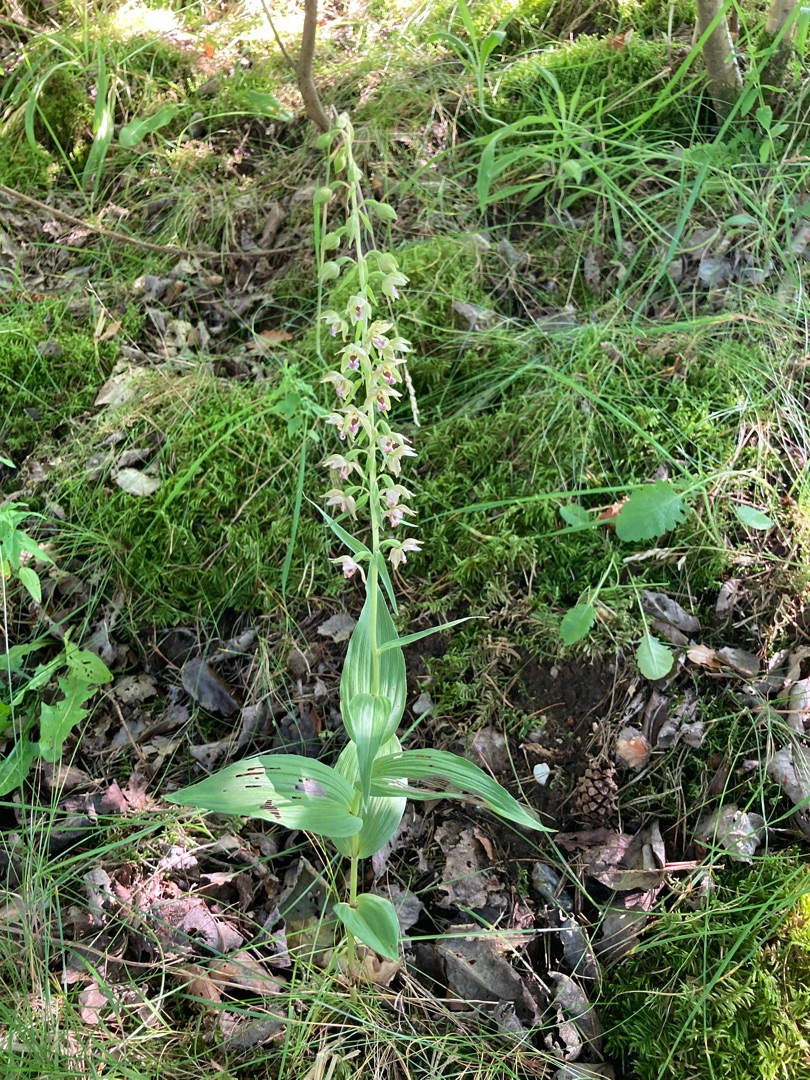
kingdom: Plantae
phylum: Tracheophyta
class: Liliopsida
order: Asparagales
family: Orchidaceae
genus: Epipactis
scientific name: Epipactis helleborine
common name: Skov-hullæbe
